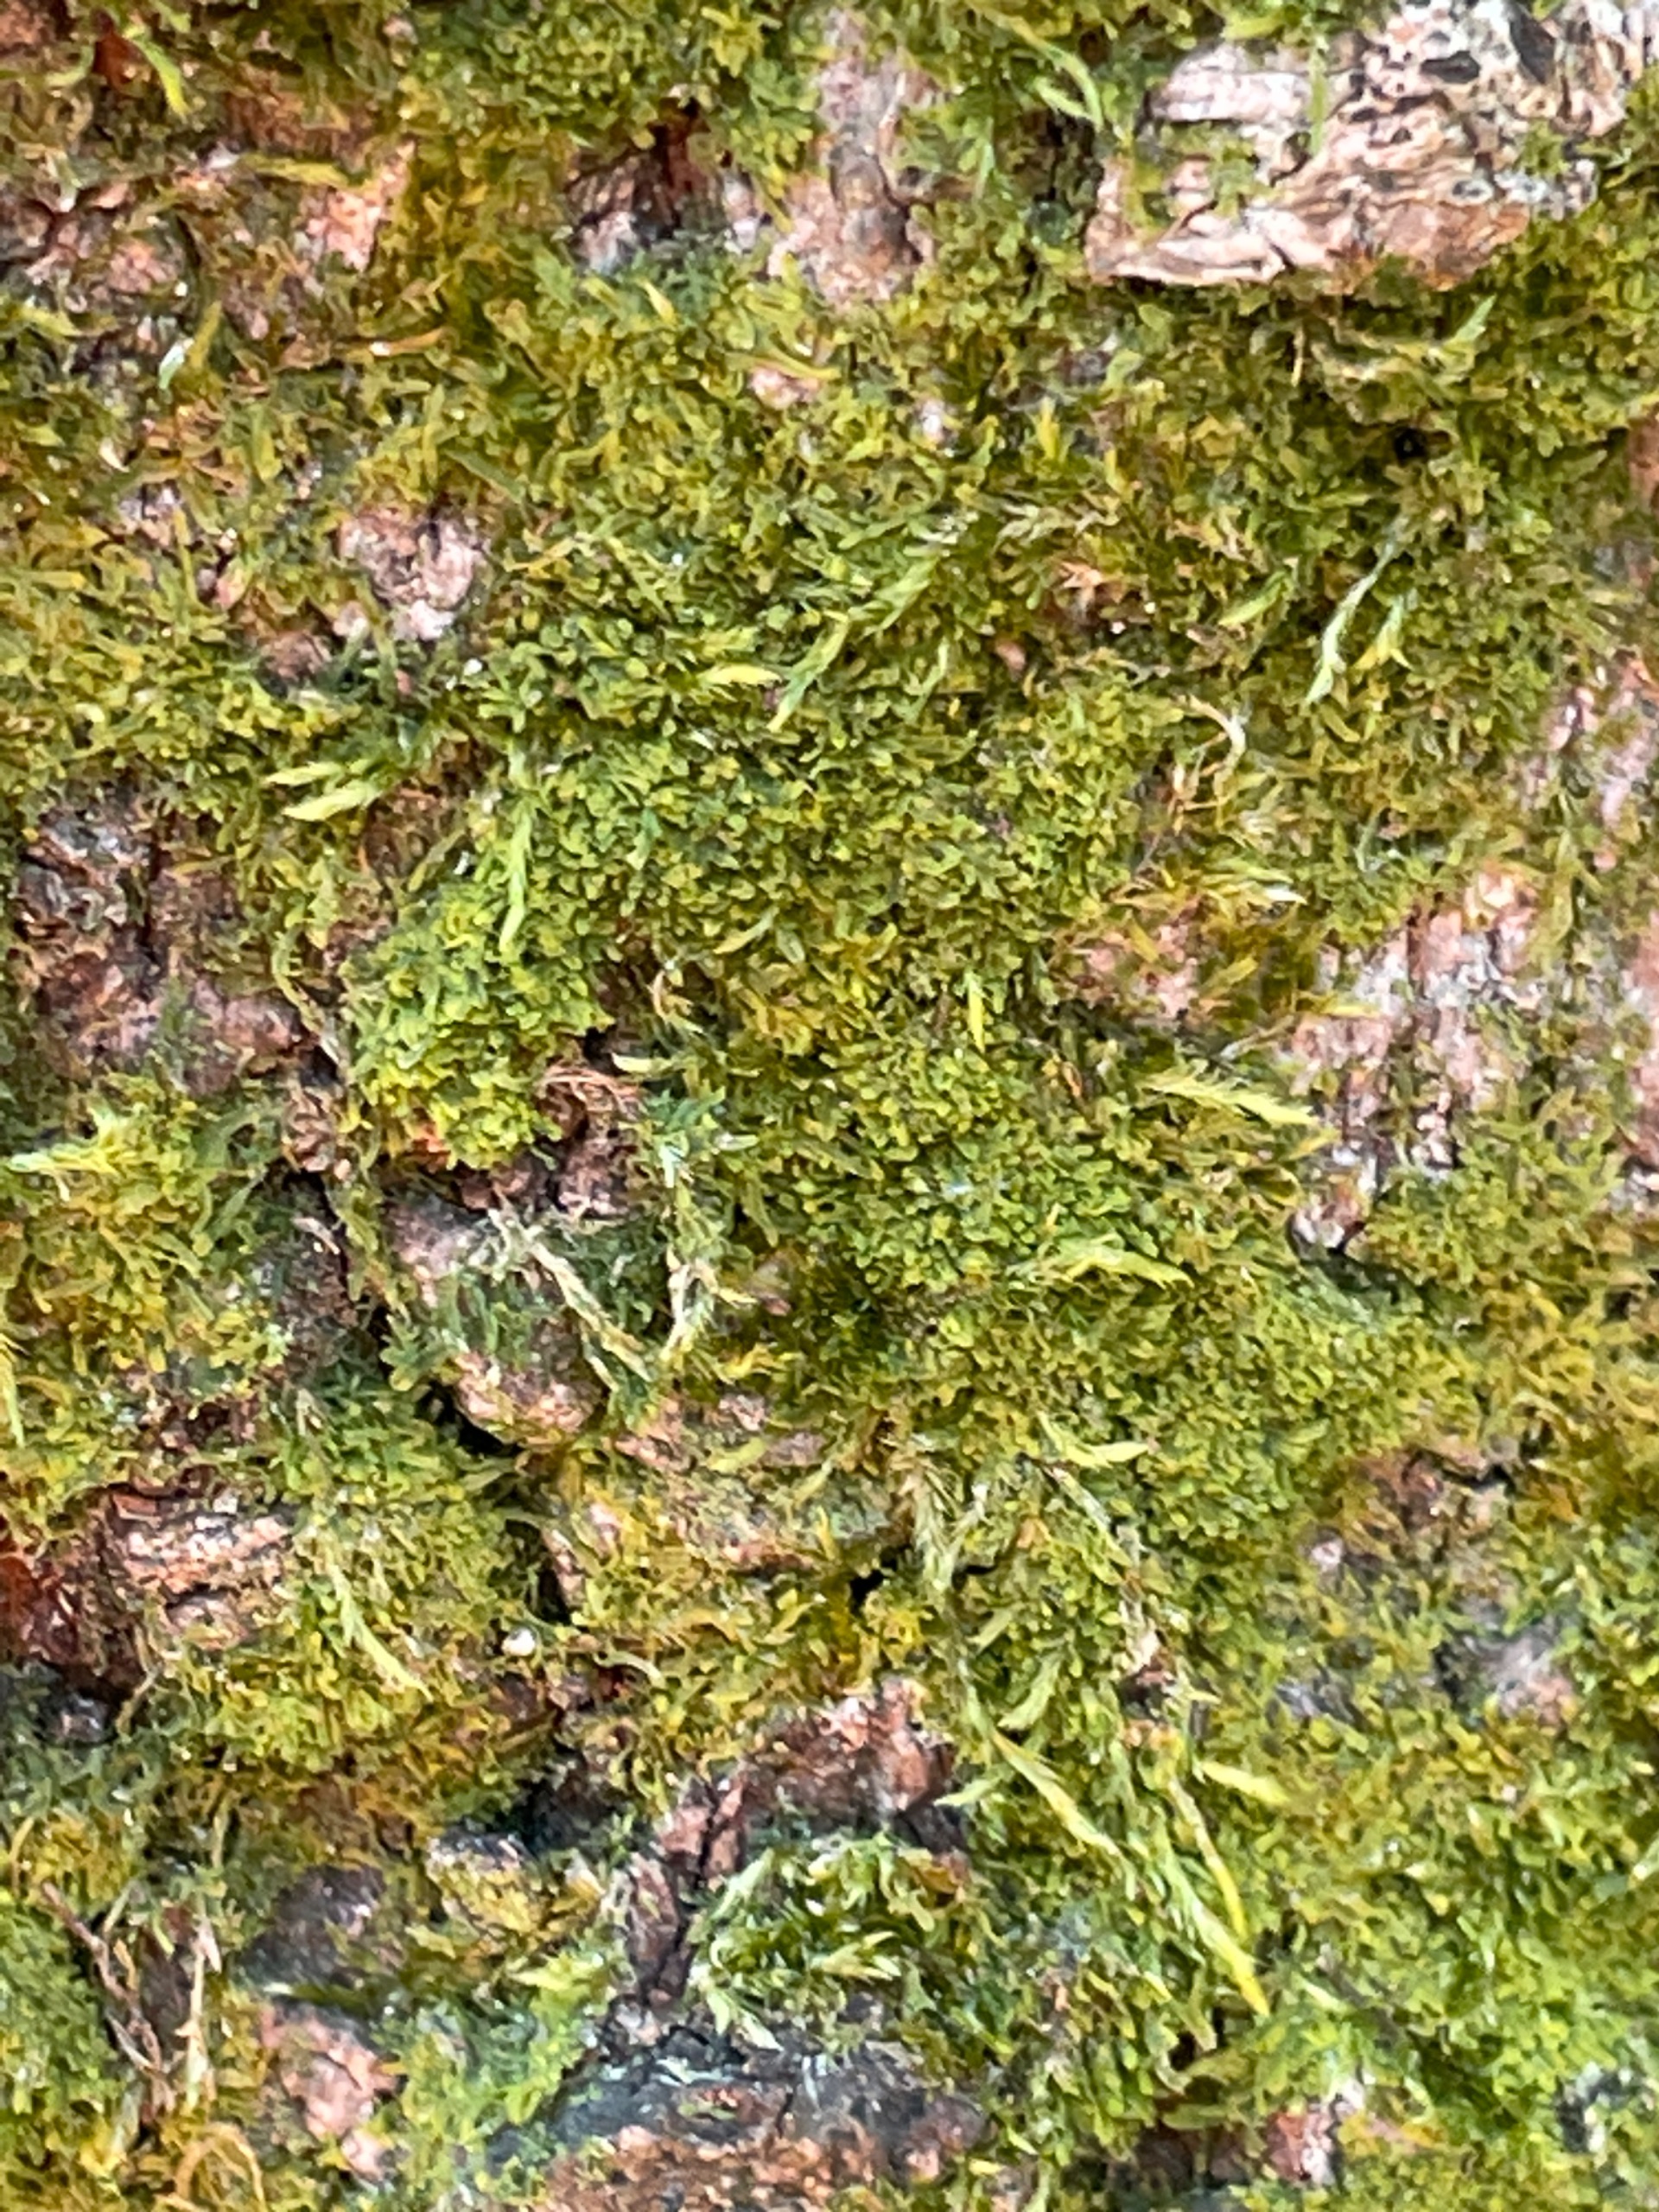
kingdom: Plantae
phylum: Marchantiophyta
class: Jungermanniopsida
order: Metzgeriales
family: Metzgeriaceae
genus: Metzgeria
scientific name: Metzgeria furcata
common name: Almindelig gaffelløv
